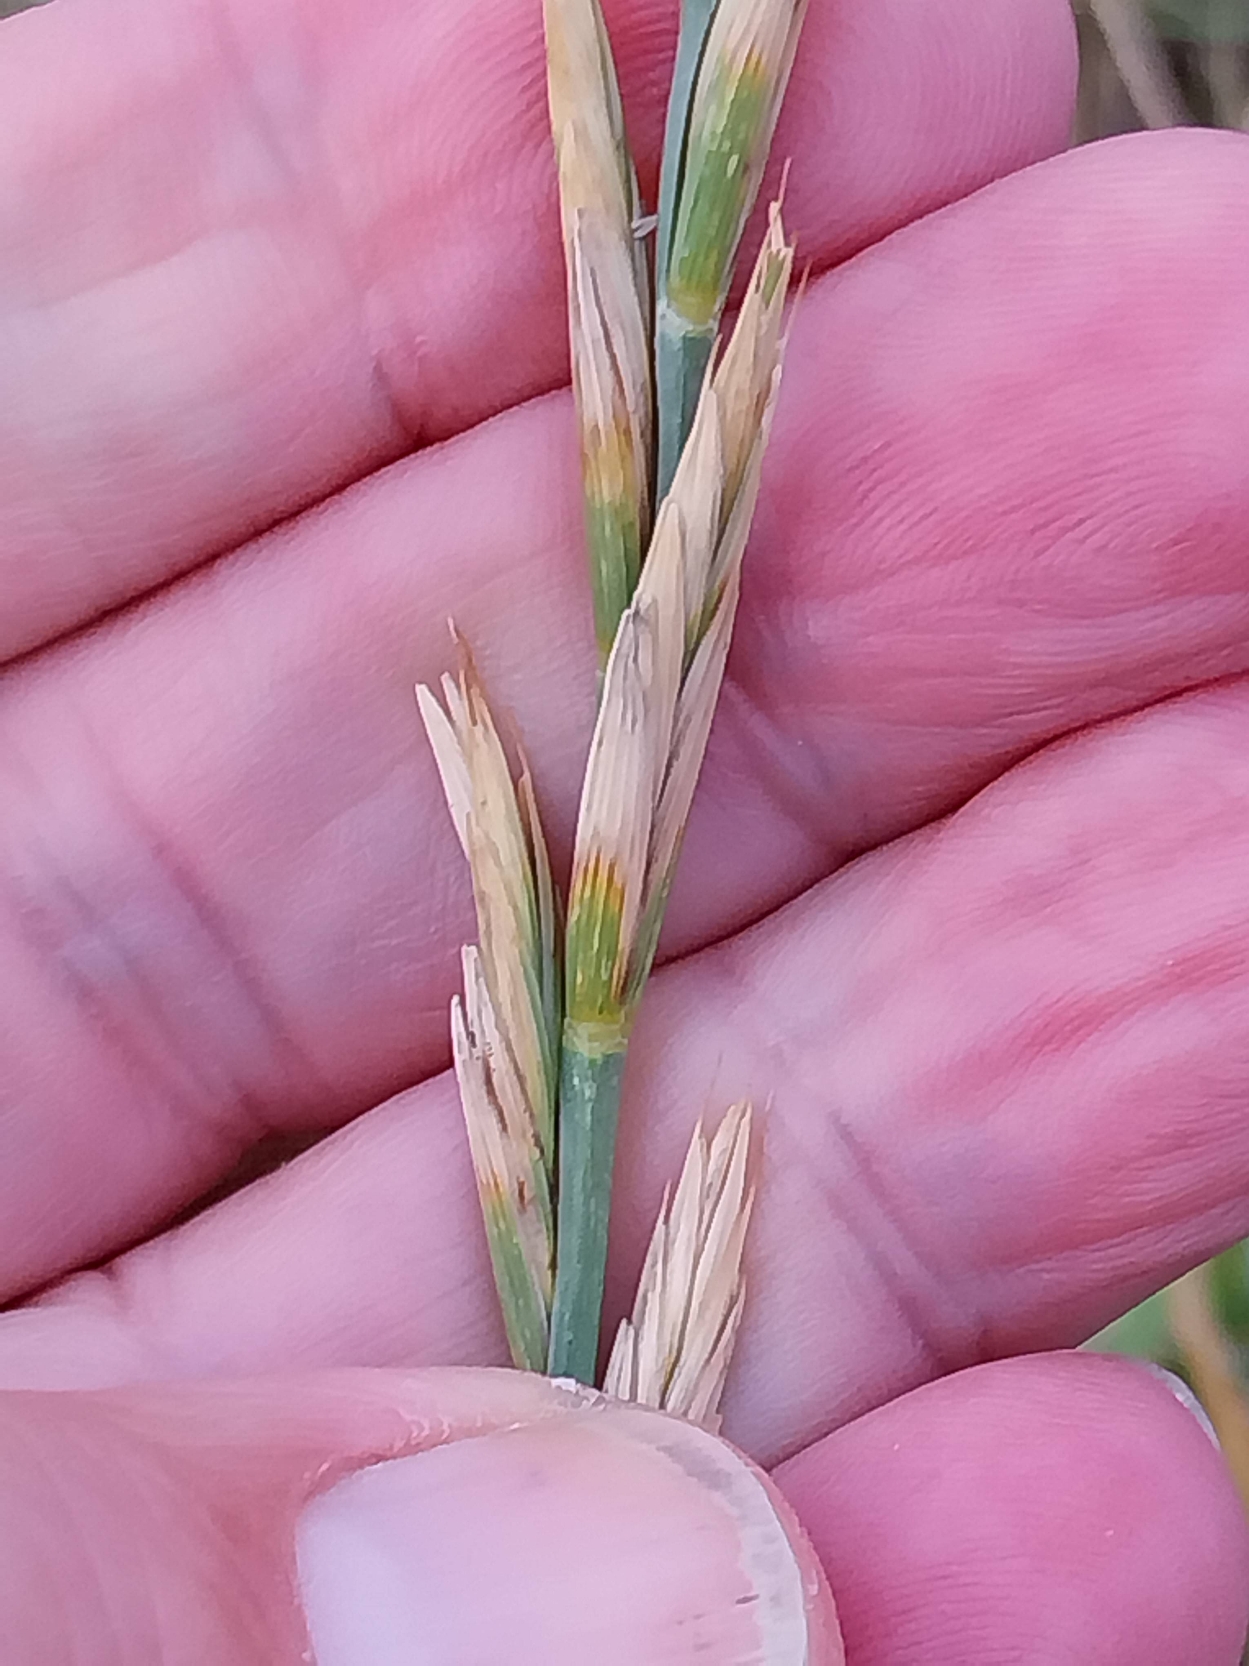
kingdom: Plantae
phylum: Tracheophyta
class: Liliopsida
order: Poales
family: Poaceae
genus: Elymus
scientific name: Elymus
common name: Hybrid-kvik
